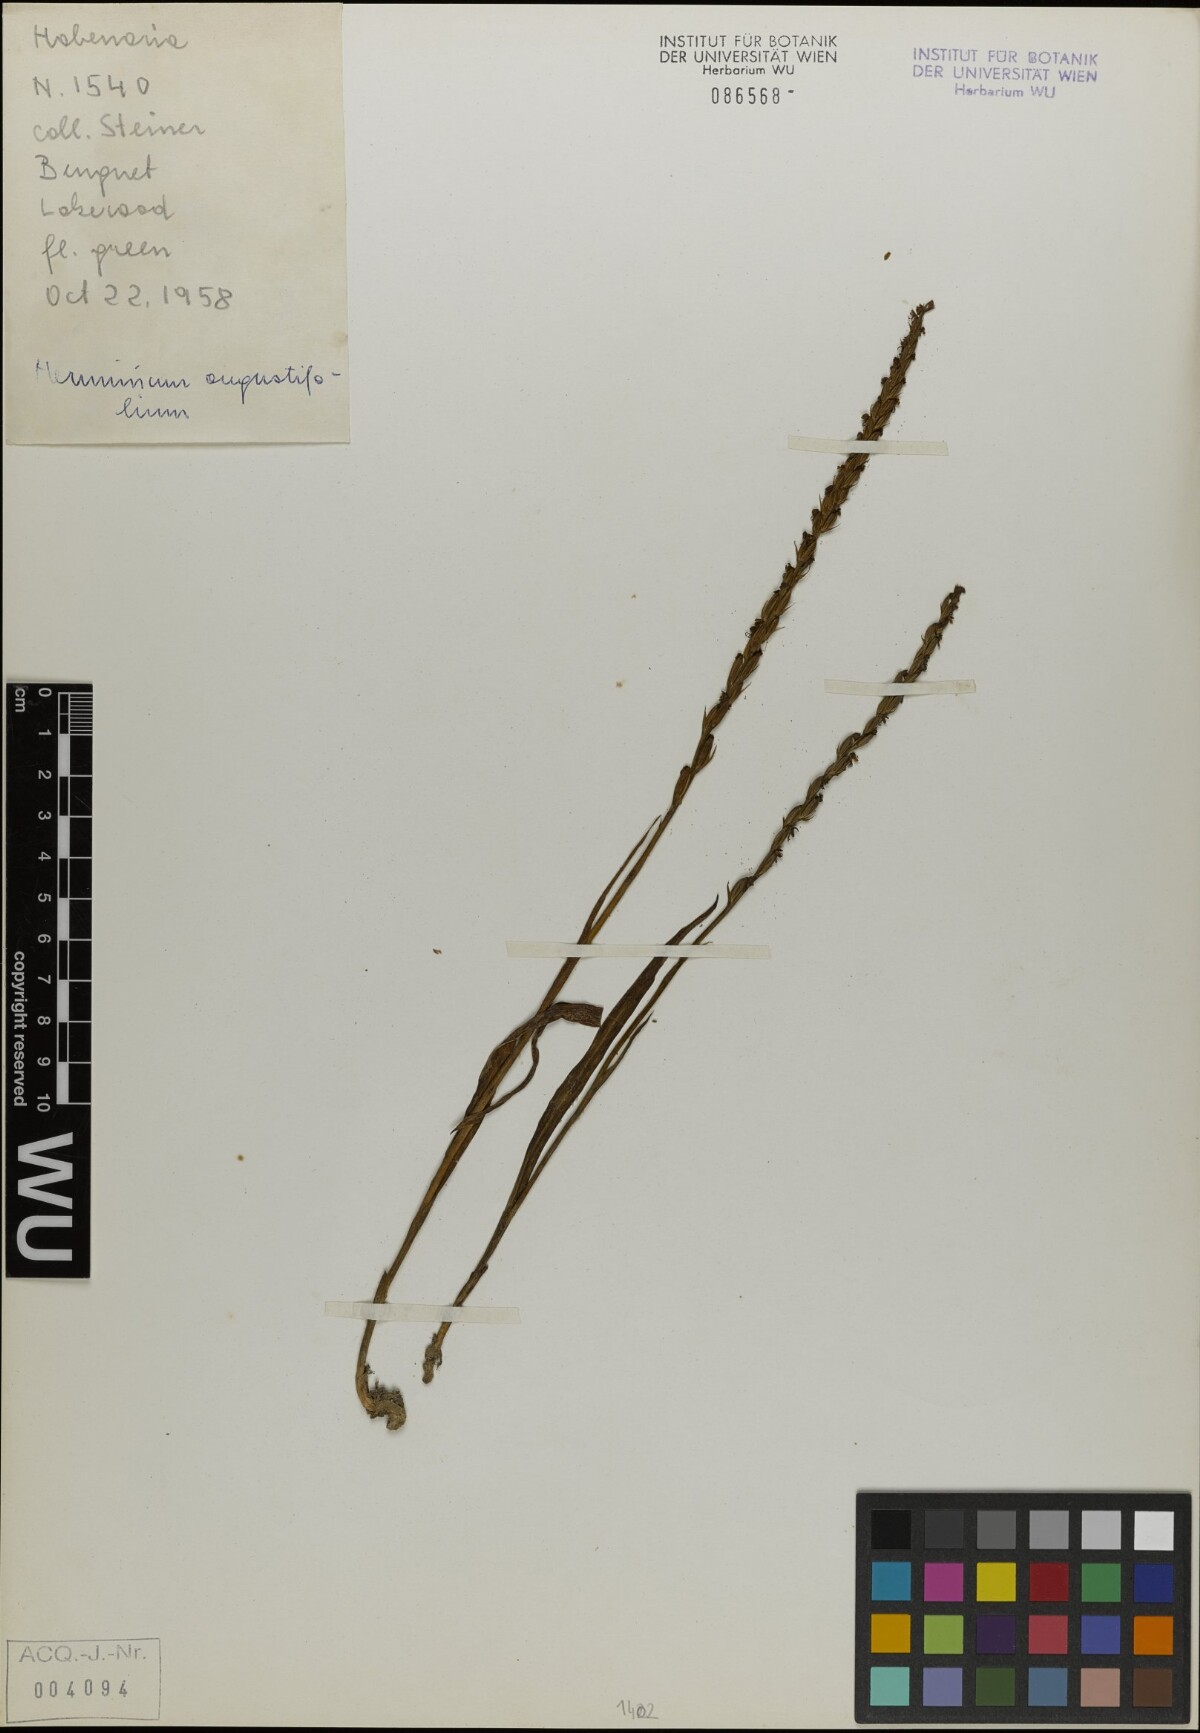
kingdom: Plantae
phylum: Tracheophyta
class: Liliopsida
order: Asparagales
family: Orchidaceae
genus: Herminium
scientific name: Herminium lanceum
